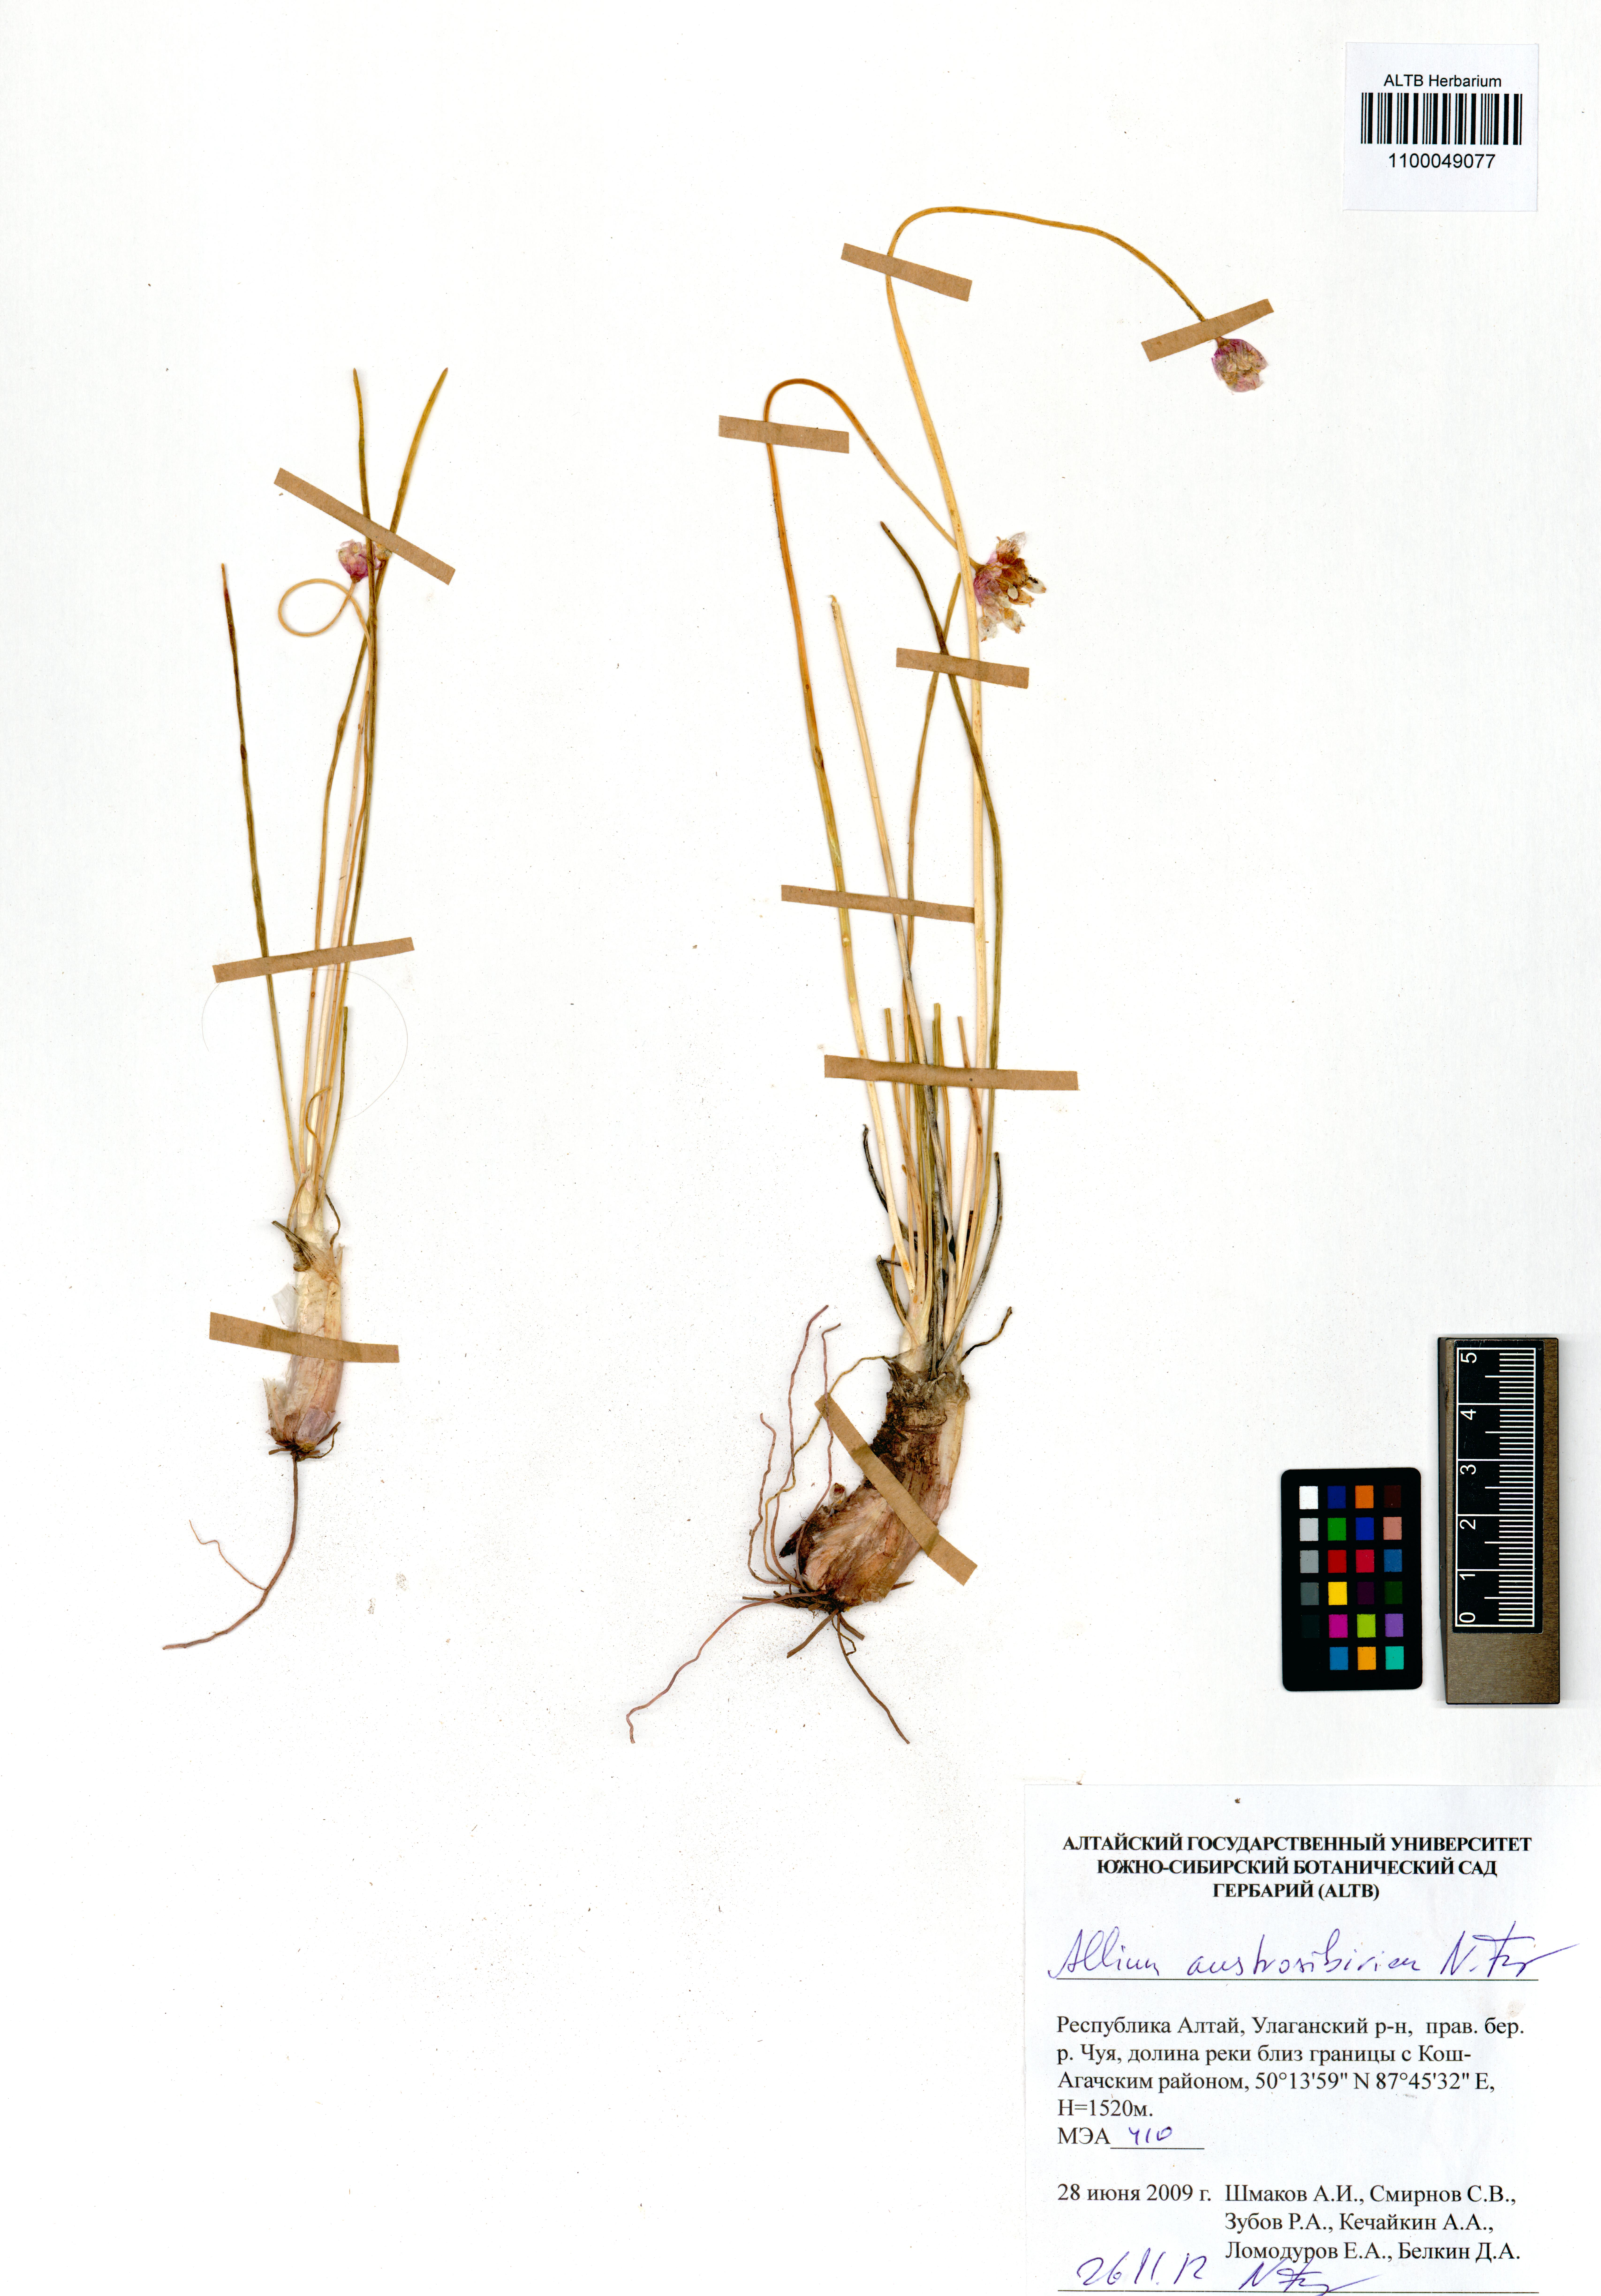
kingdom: Plantae
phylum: Tracheophyta
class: Liliopsida
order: Asparagales
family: Amaryllidaceae
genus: Allium
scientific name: Allium austrosibiricum
